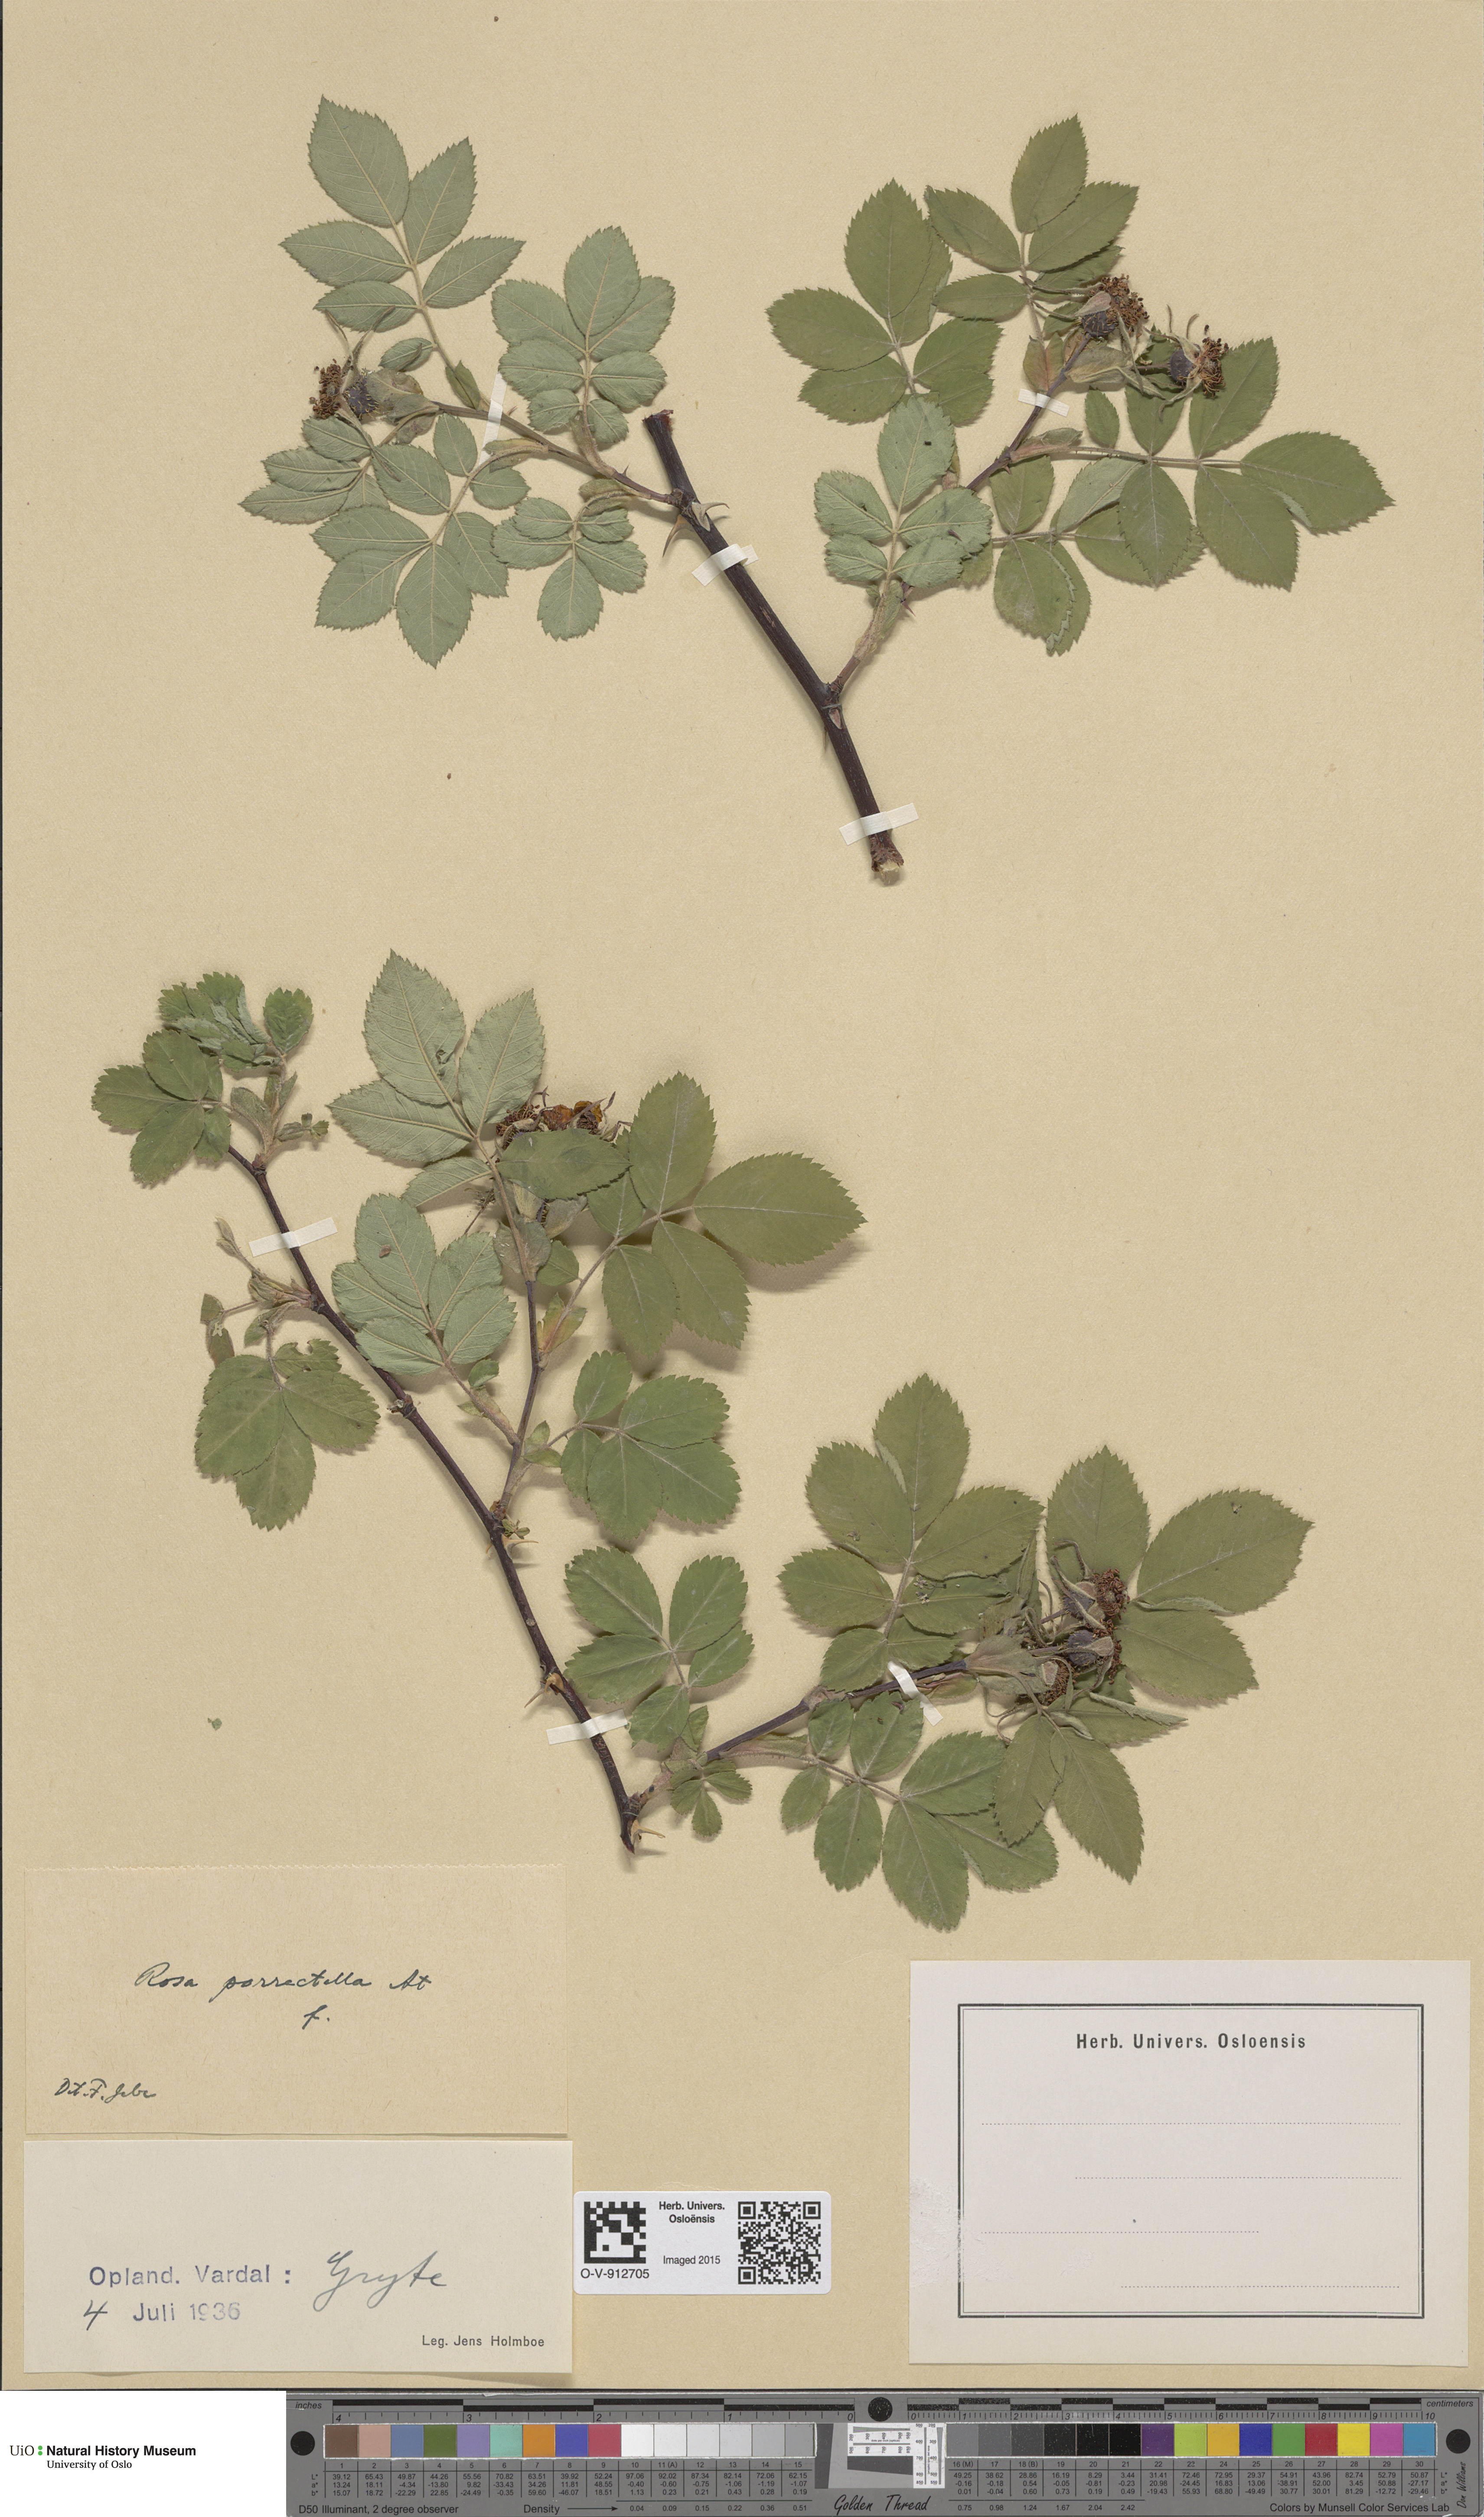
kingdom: Plantae
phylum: Tracheophyta
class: Magnoliopsida
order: Rosales
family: Rosaceae
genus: Rosa
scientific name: Rosa mollis
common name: Rose
